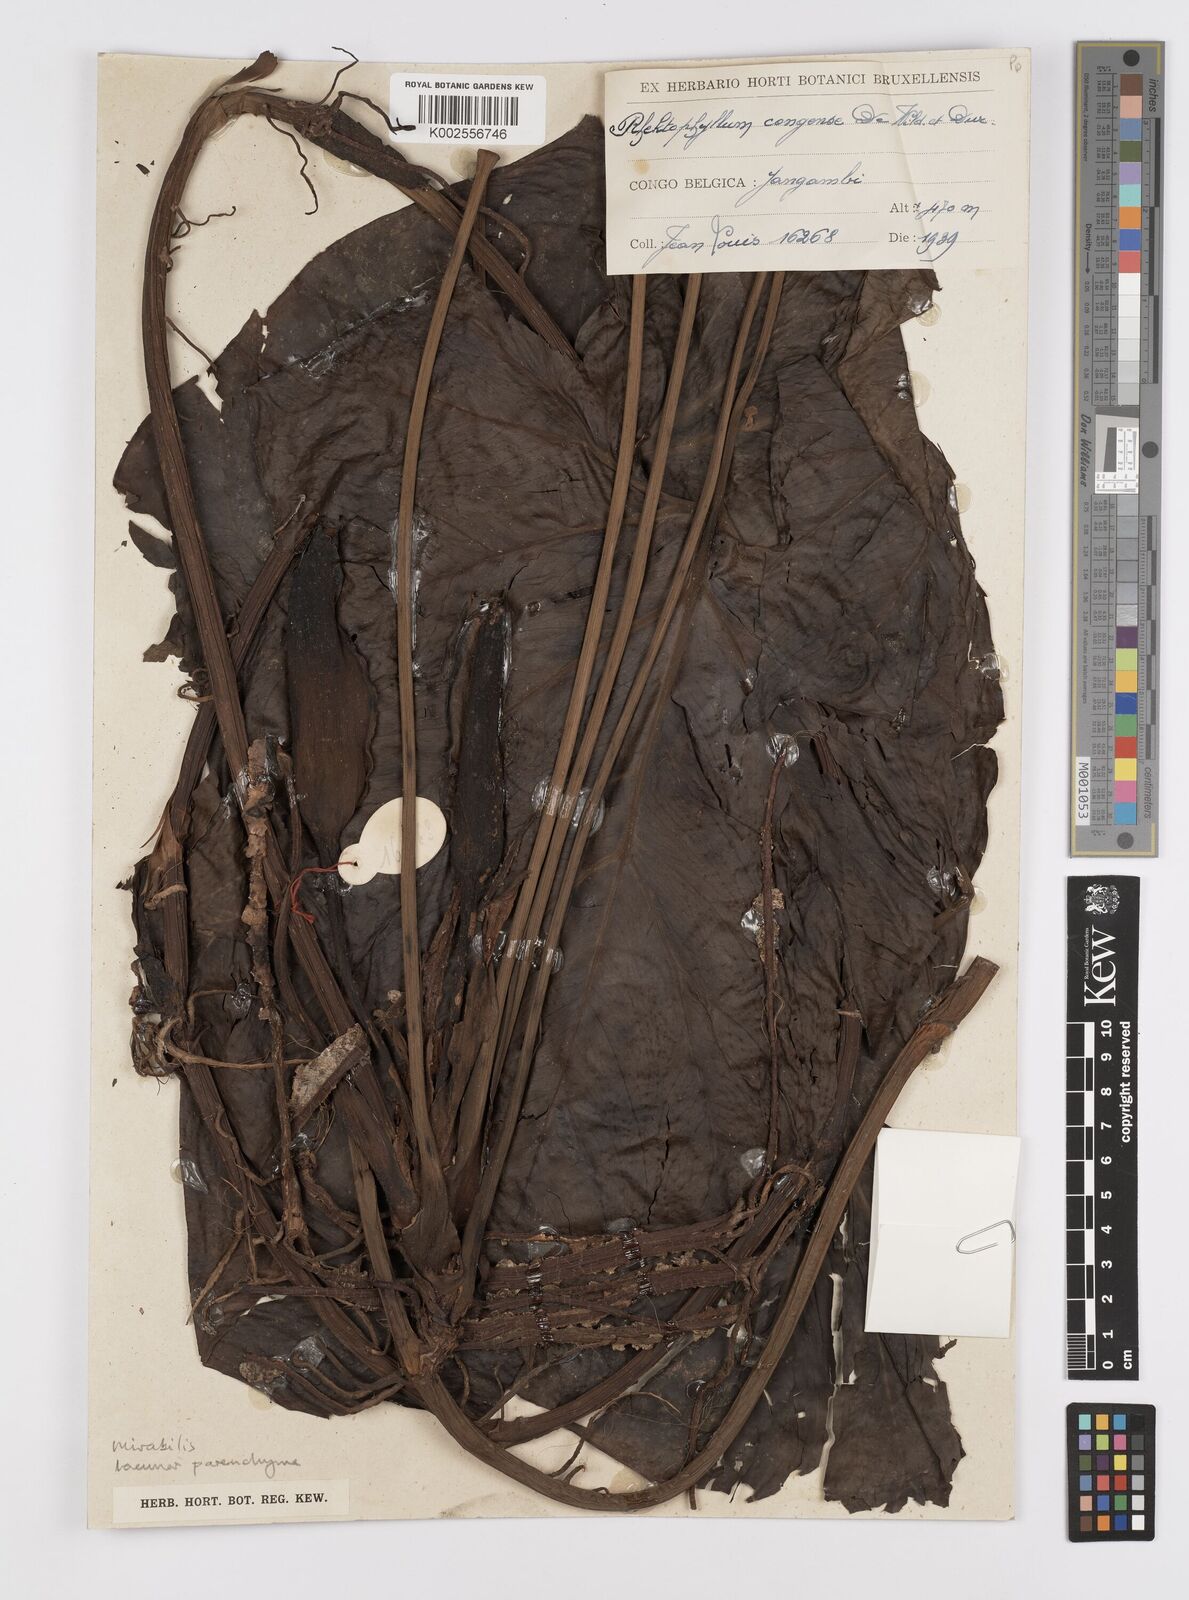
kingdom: Plantae
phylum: Tracheophyta
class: Liliopsida
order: Alismatales
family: Araceae
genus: Cercestis
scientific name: Cercestis mirabilis
